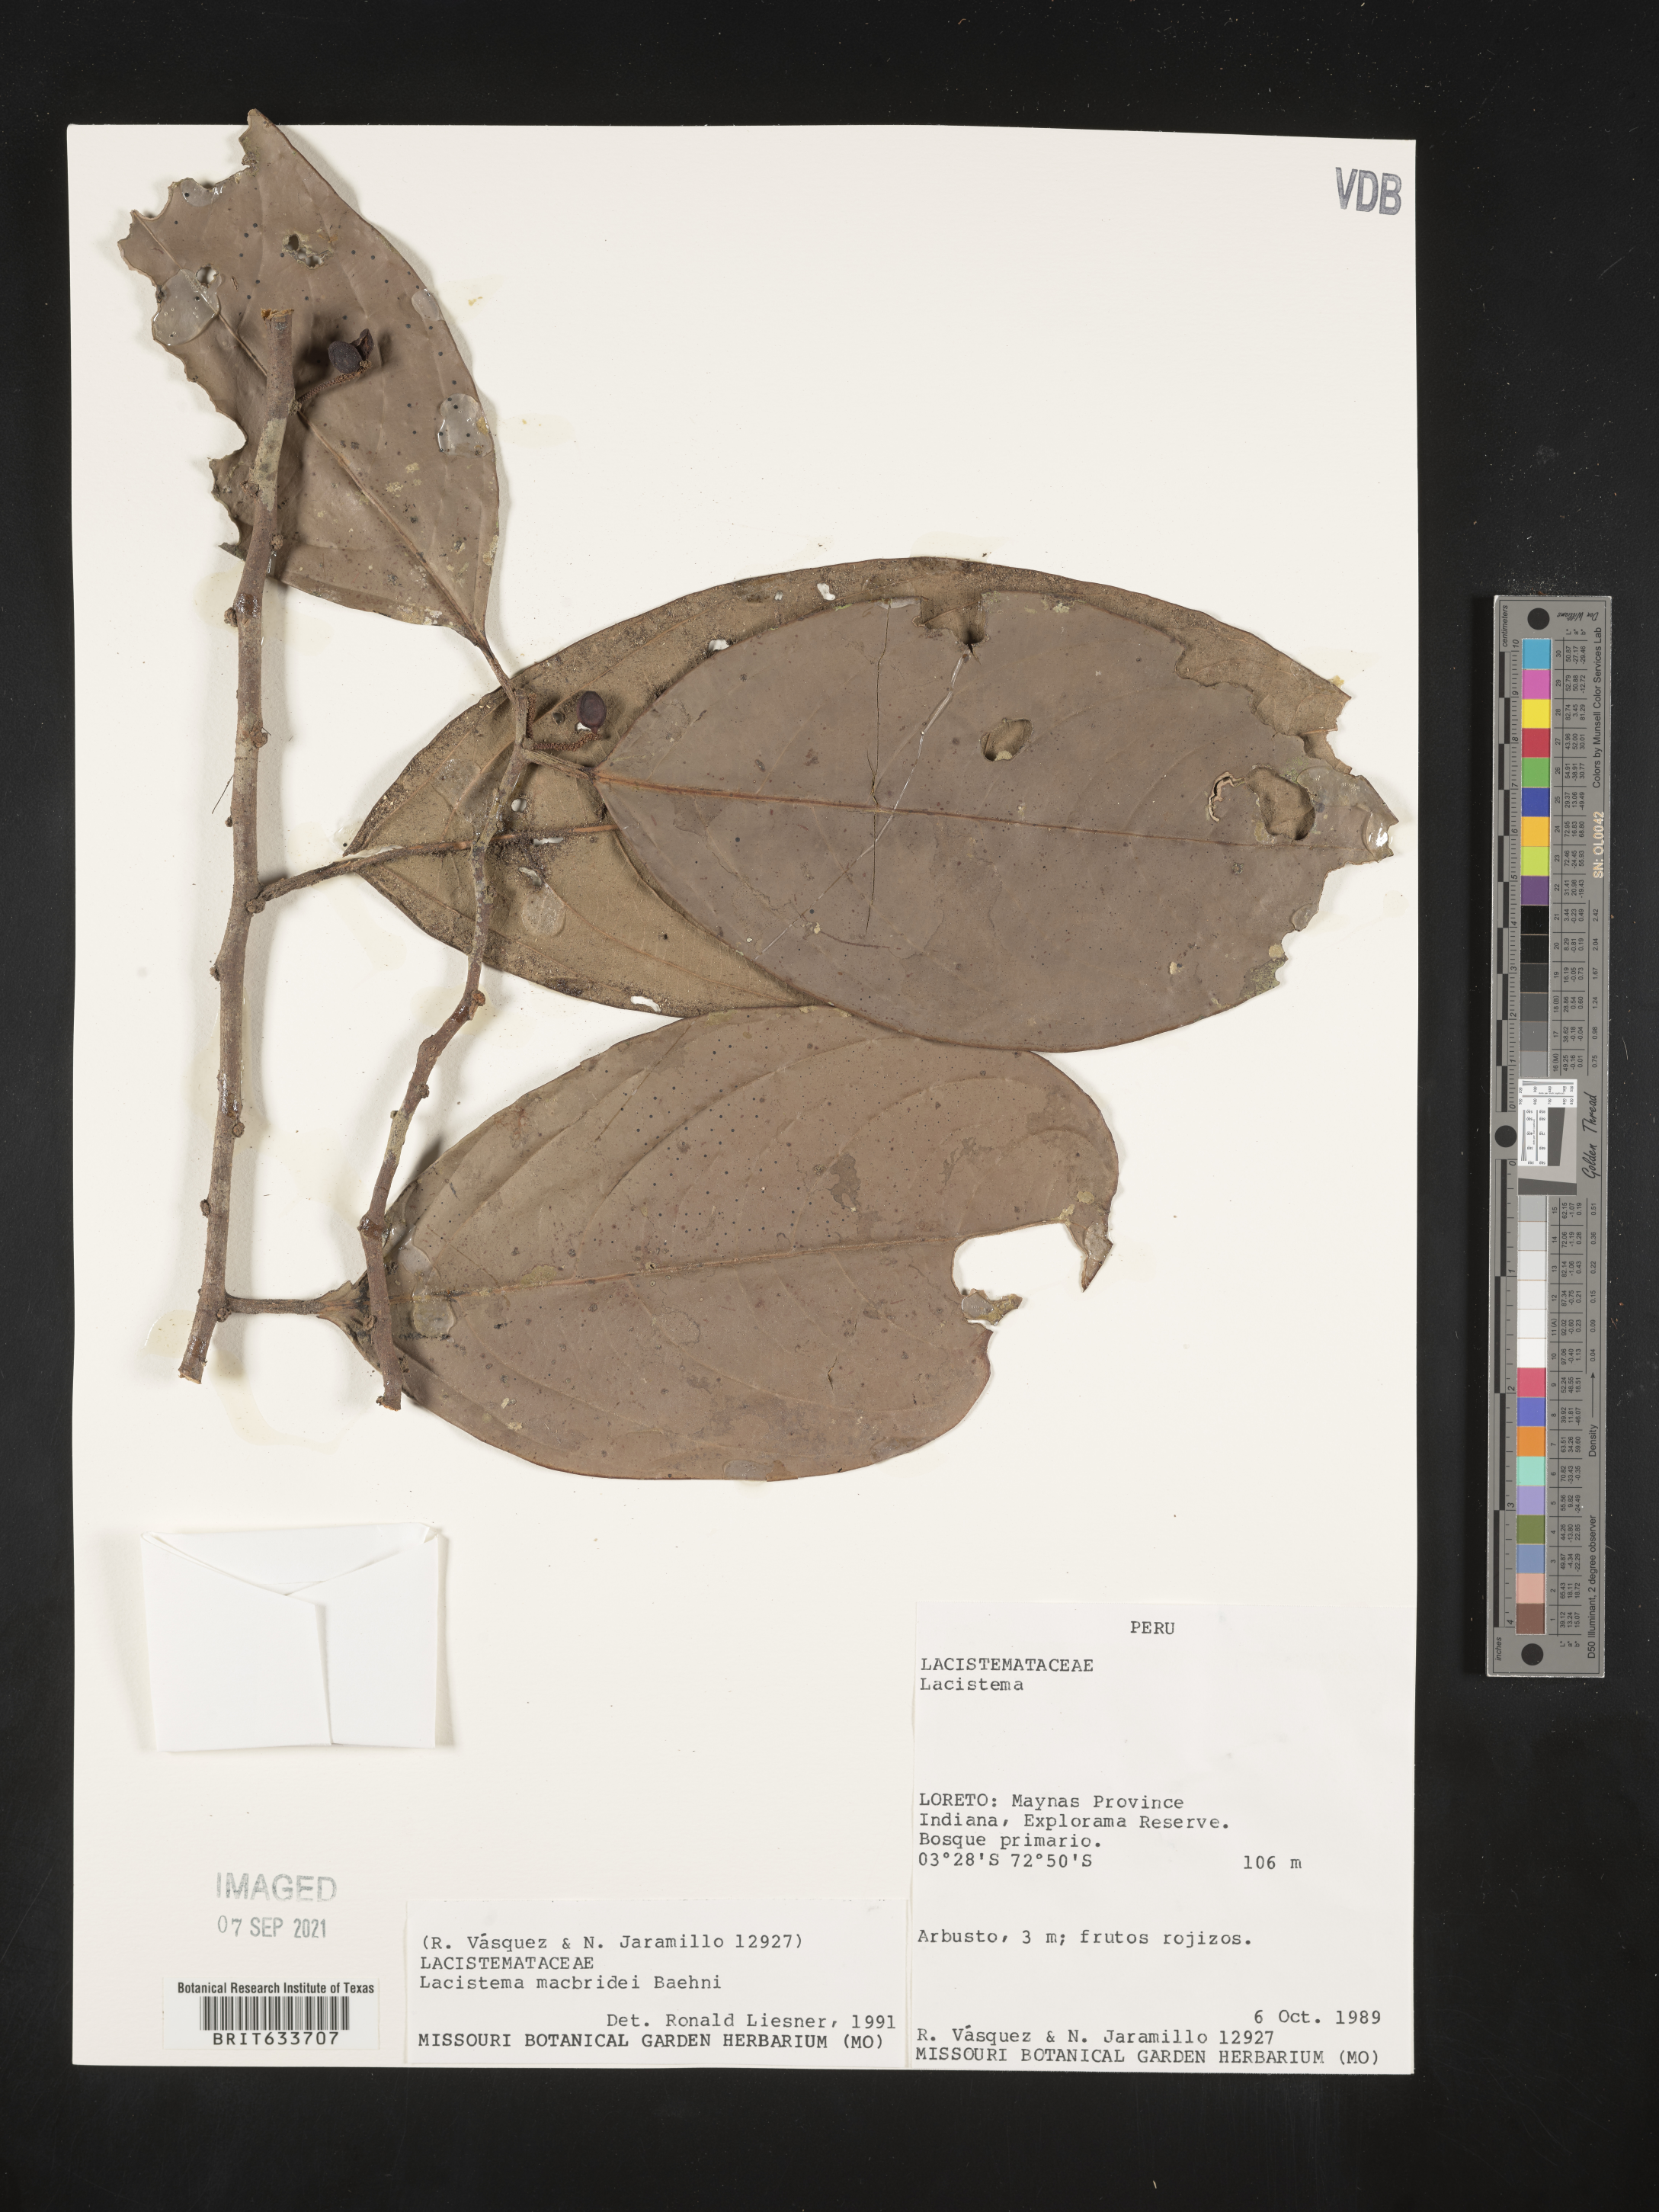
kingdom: Plantae
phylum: Tracheophyta
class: Magnoliopsida
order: Malpighiales
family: Lacistemataceae
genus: Lacistema
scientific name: Lacistema
